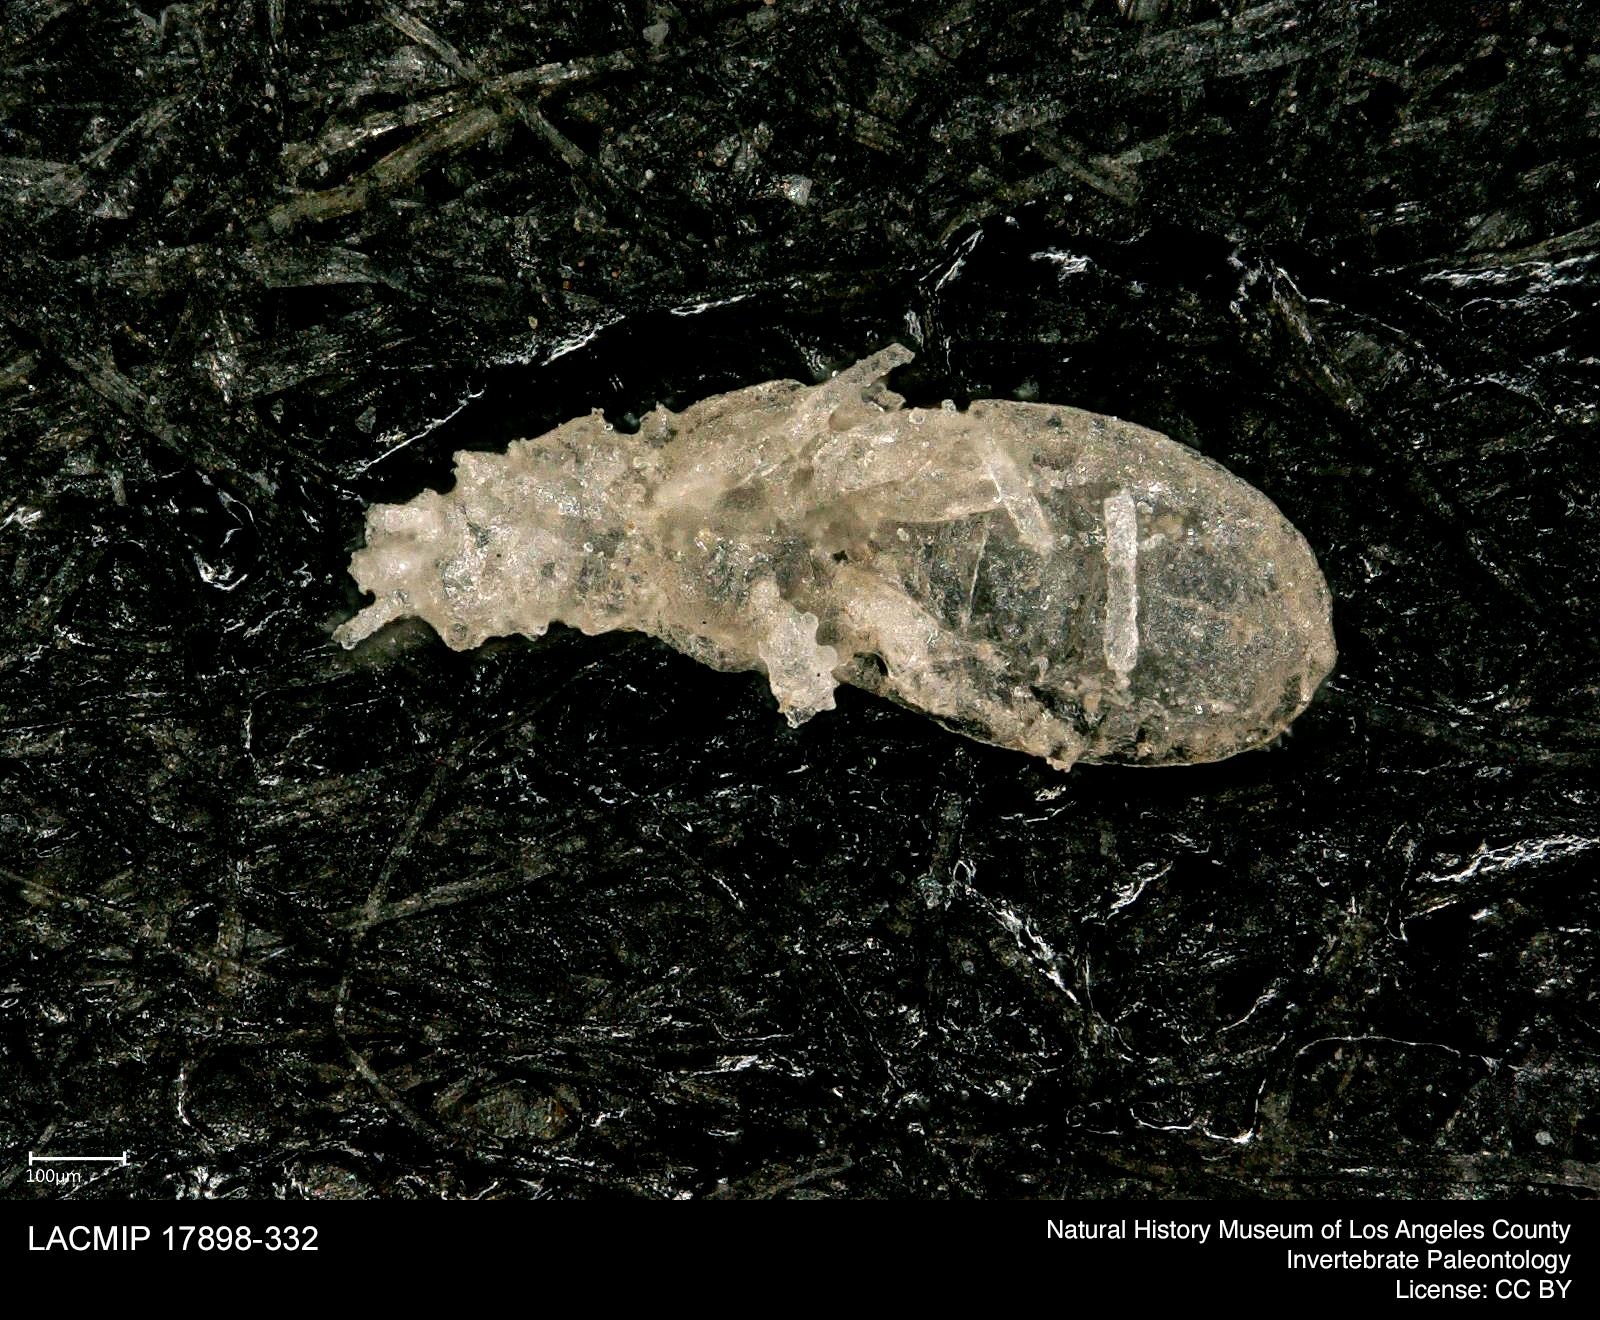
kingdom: Animalia
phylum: Arthropoda
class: Insecta
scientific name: Insecta
